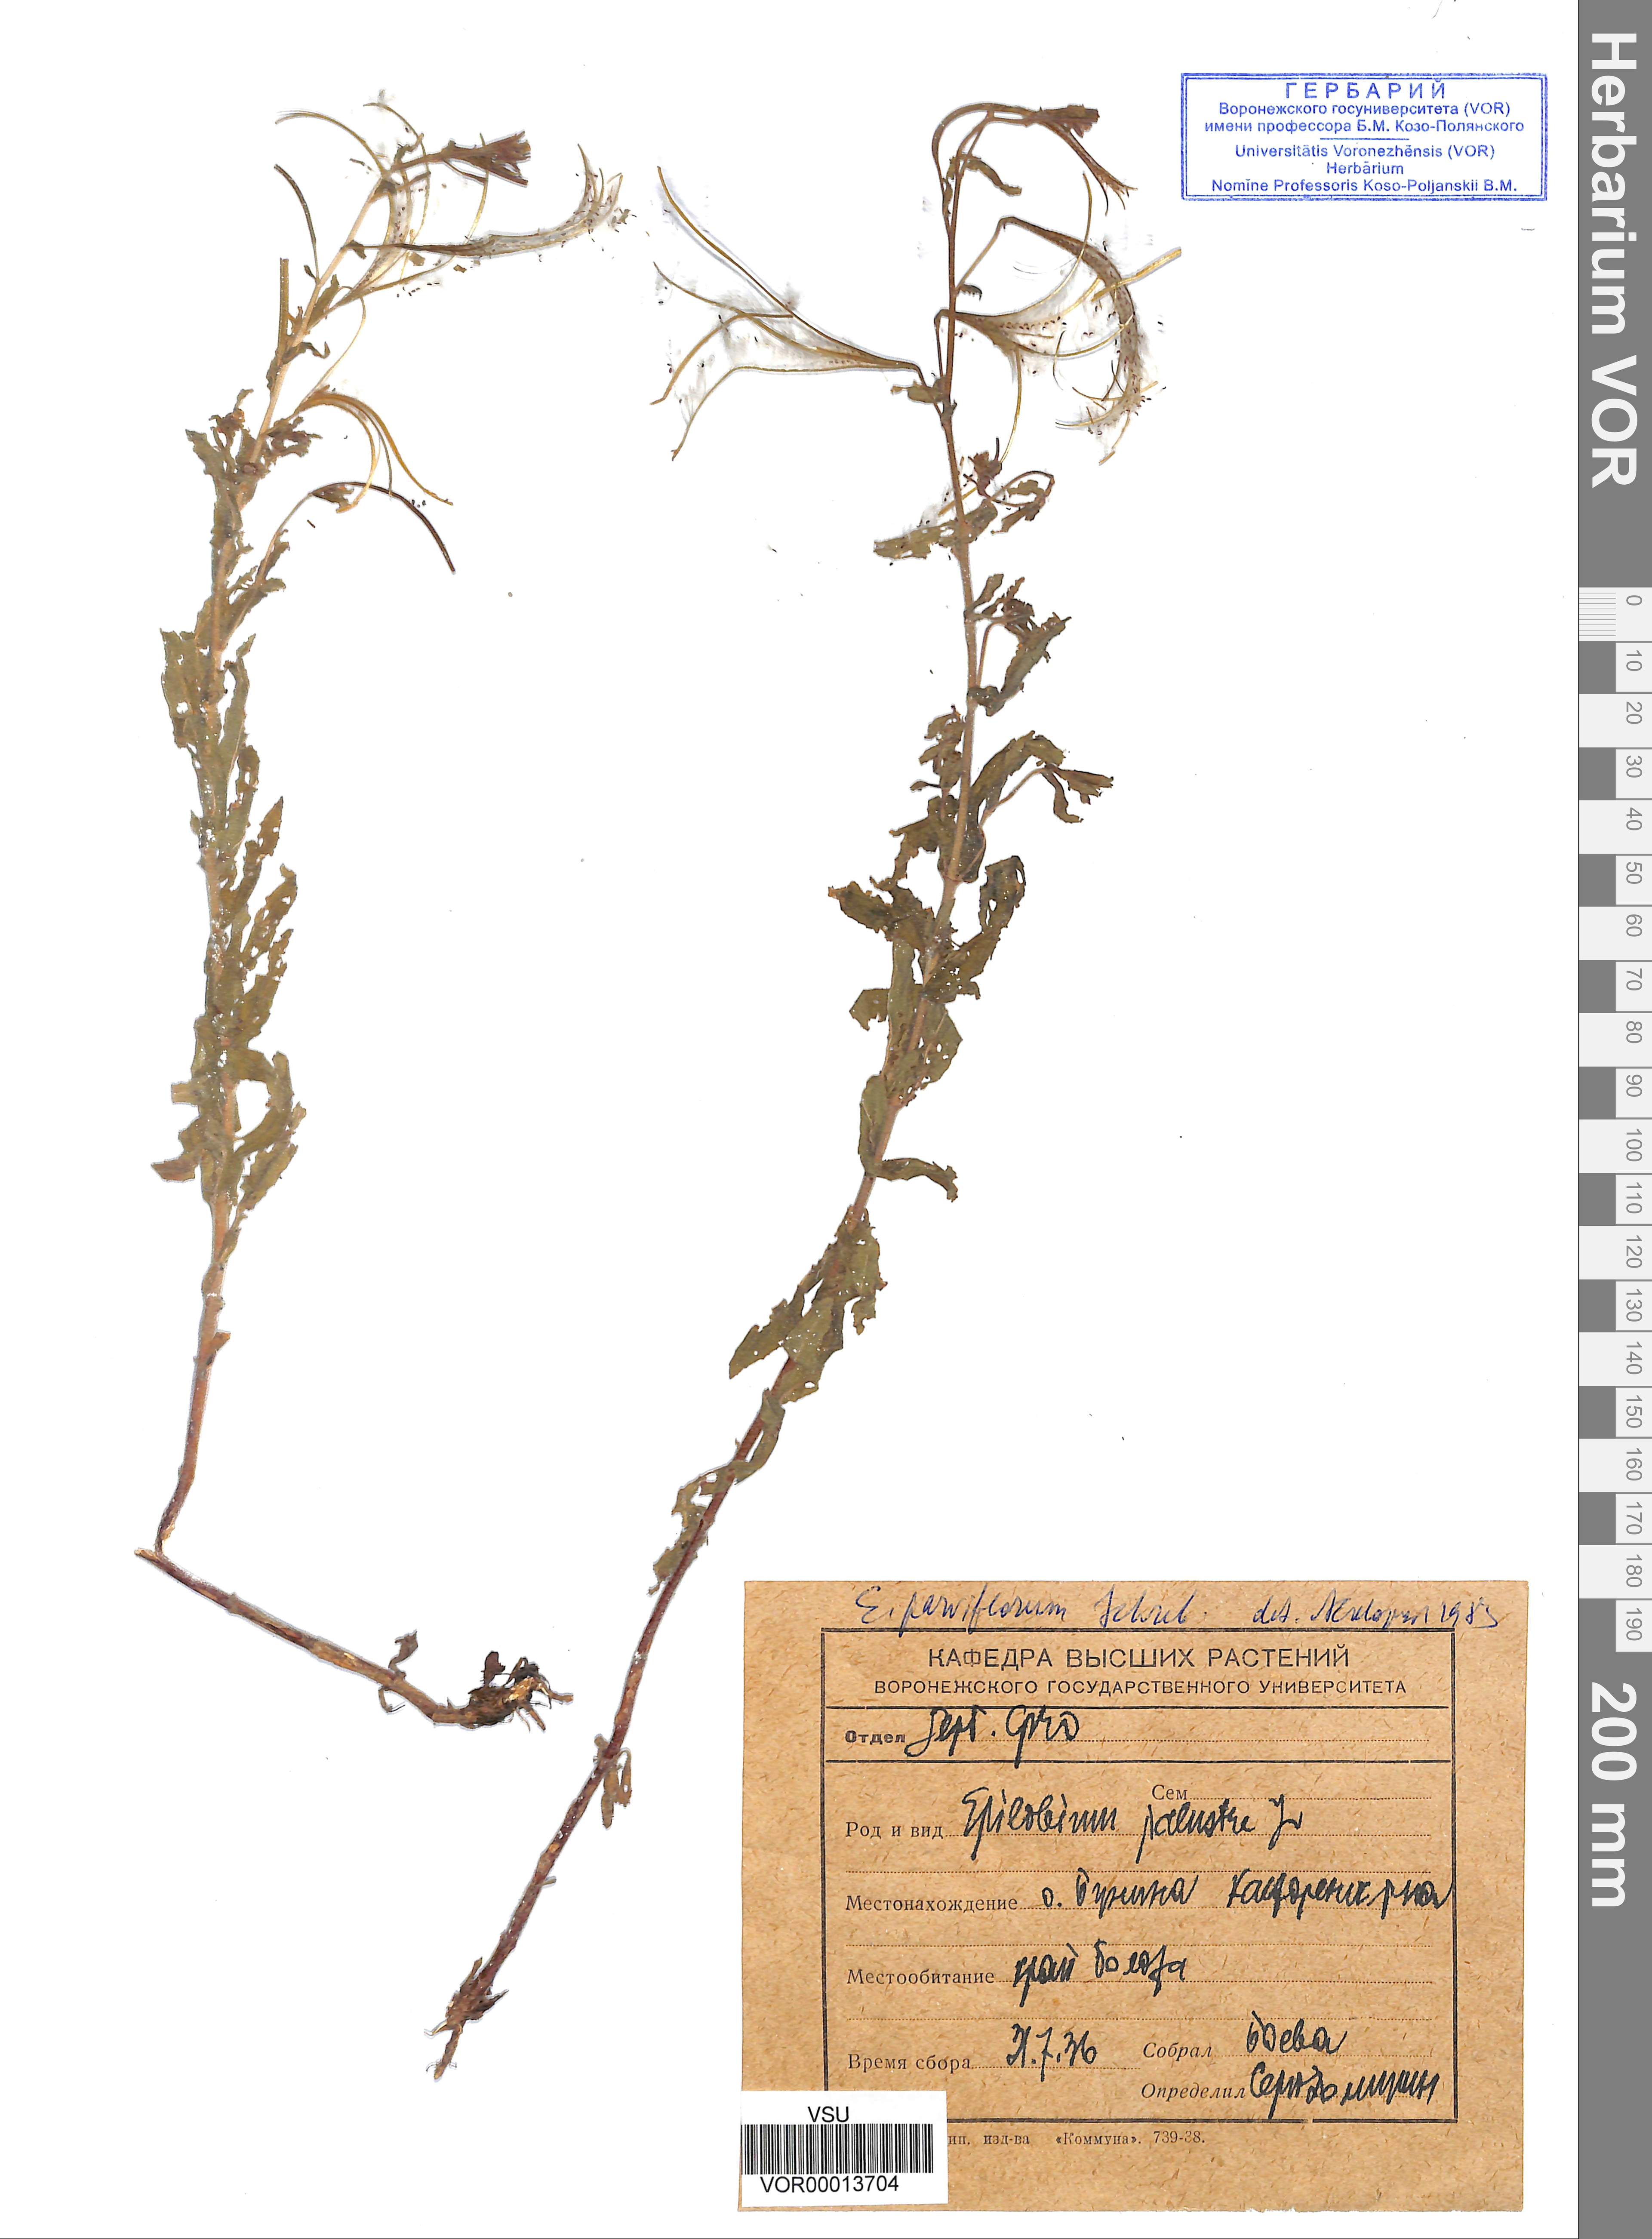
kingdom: Plantae
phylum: Tracheophyta
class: Magnoliopsida
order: Myrtales
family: Onagraceae
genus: Epilobium
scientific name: Epilobium parviflorum
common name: Hoary willowherb
